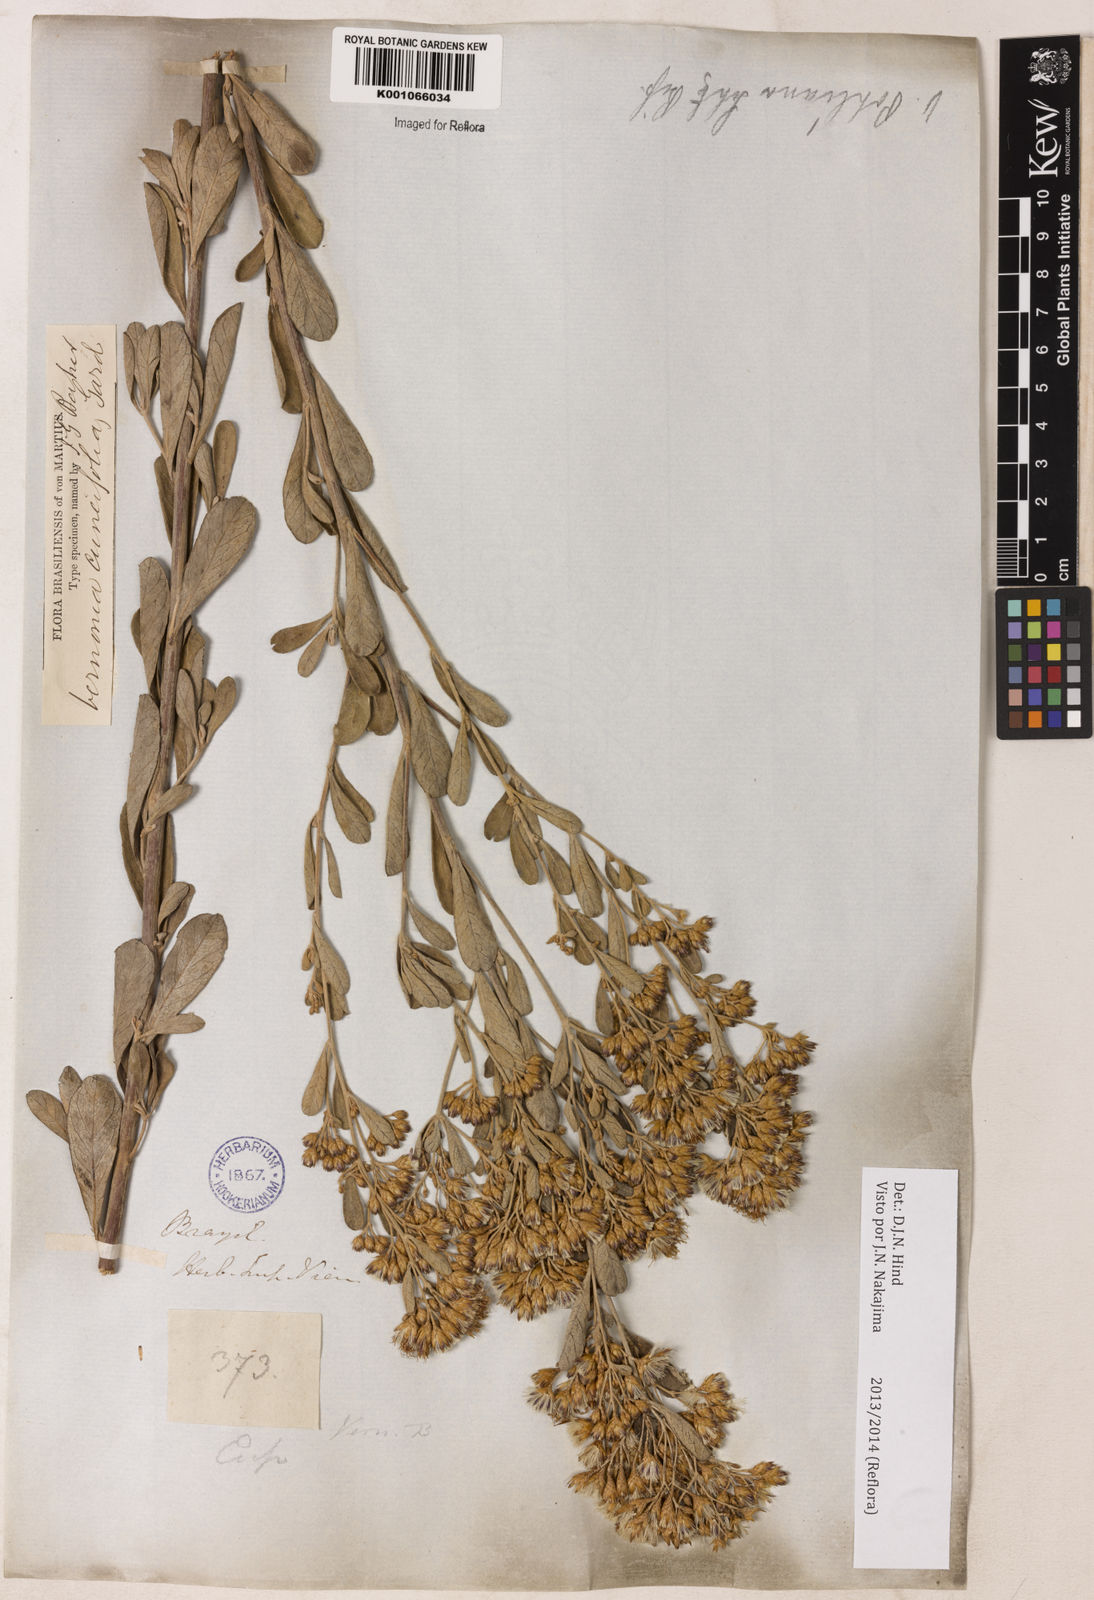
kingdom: Plantae
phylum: Tracheophyta
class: Magnoliopsida
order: Asterales
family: Asteraceae
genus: Vernonanthura
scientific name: Vernonanthura cuneifolia
